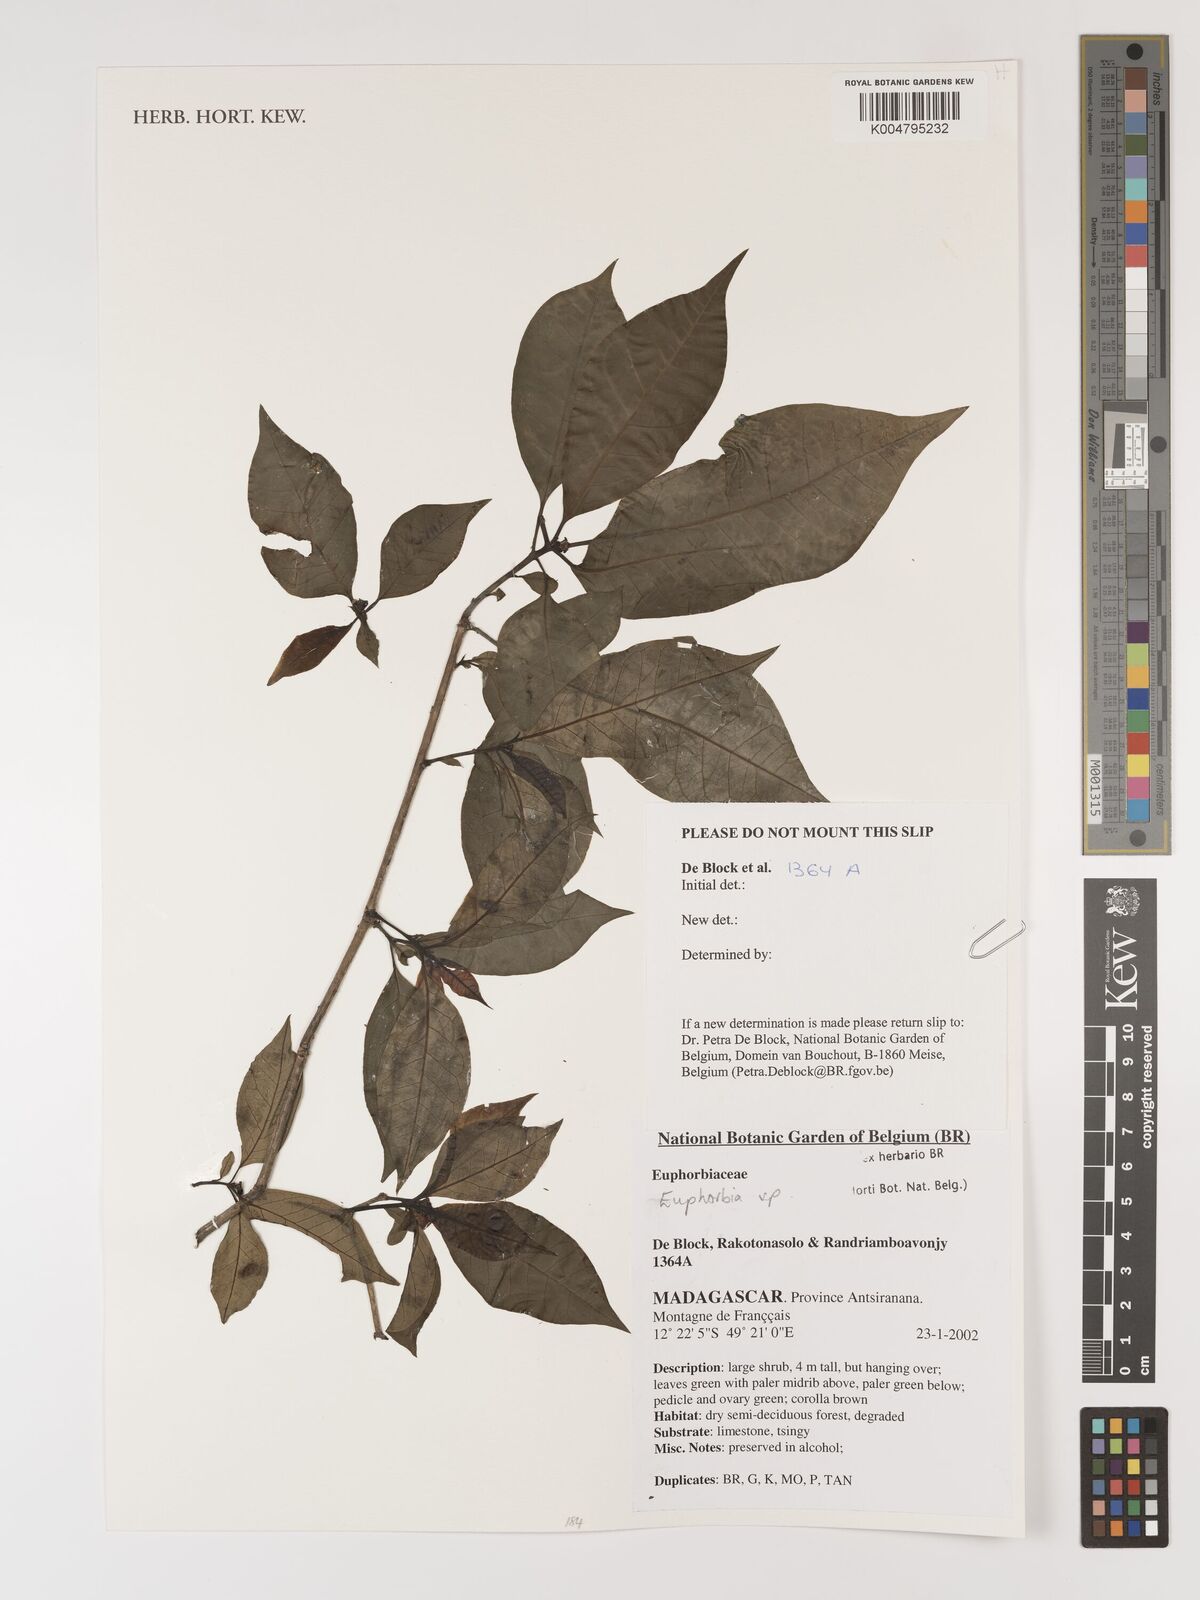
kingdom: Plantae
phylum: Tracheophyta
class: Magnoliopsida
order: Malpighiales
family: Euphorbiaceae
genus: Euphorbia
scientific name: Euphorbia
